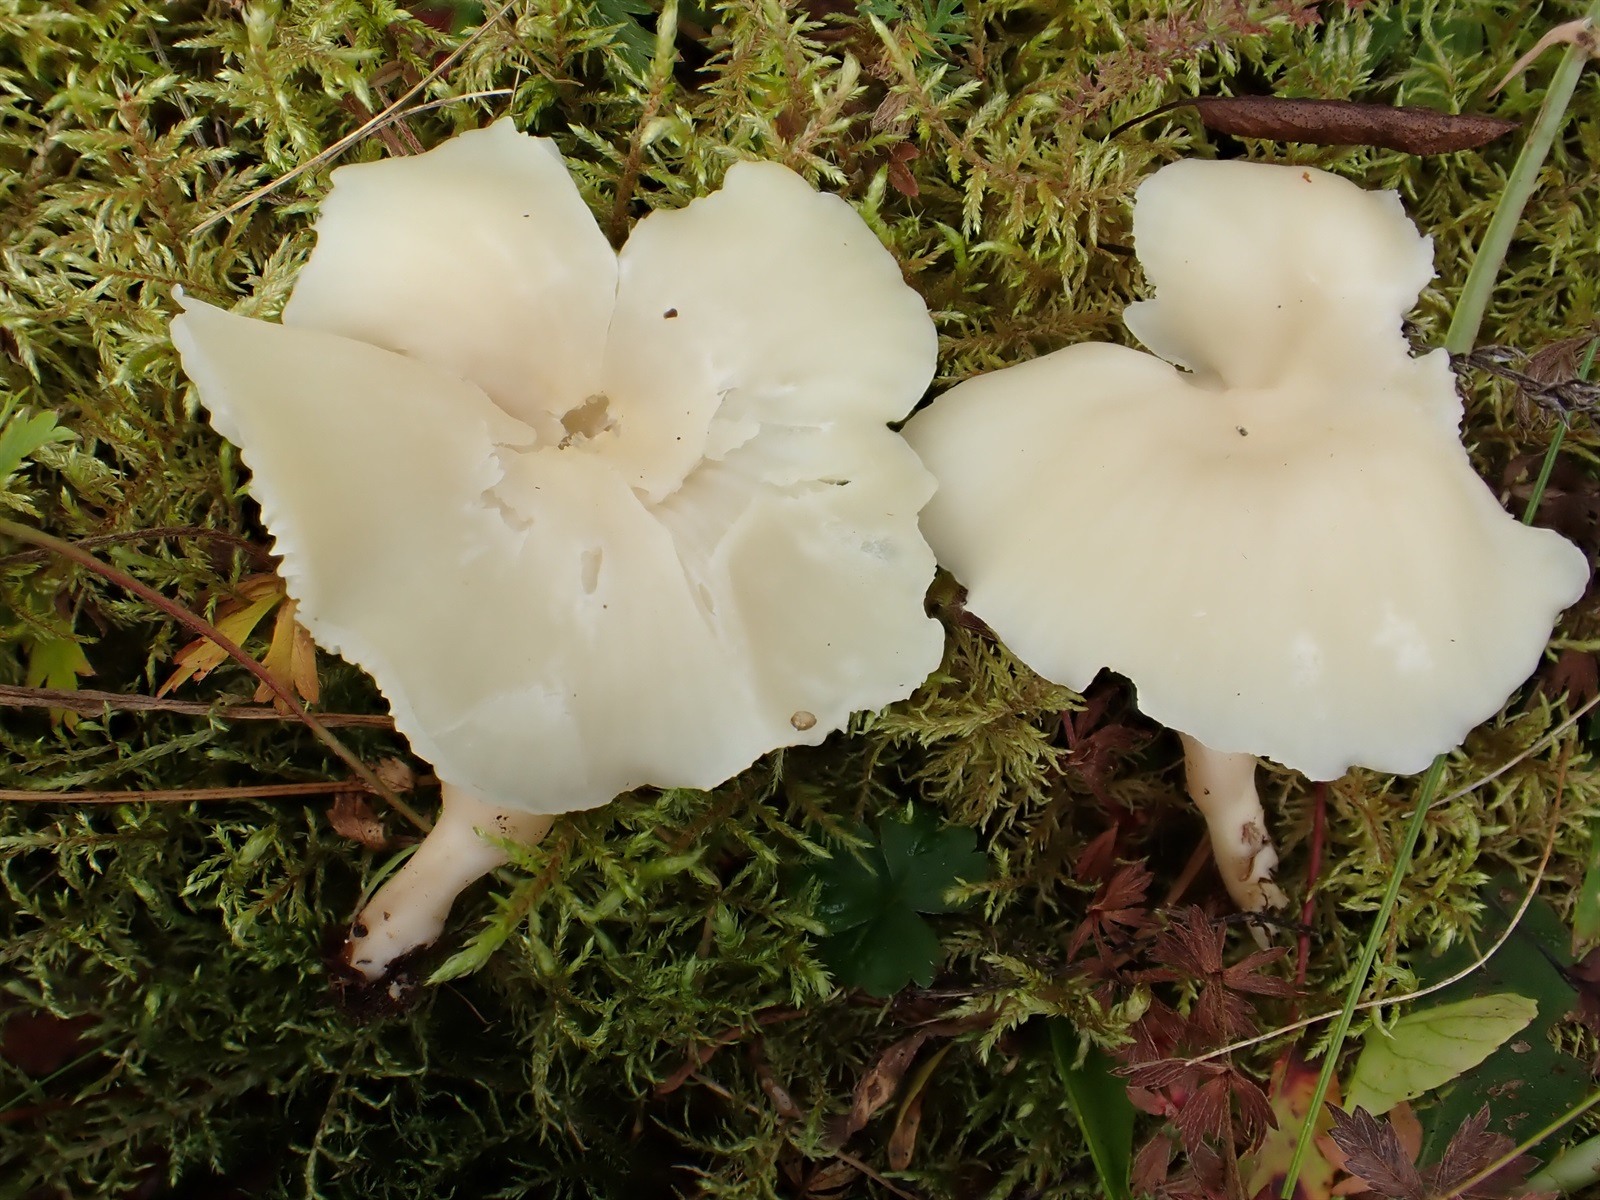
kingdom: Fungi
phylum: Basidiomycota
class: Agaricomycetes
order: Agaricales
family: Hygrophoraceae
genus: Cuphophyllus
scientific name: Cuphophyllus virgineus
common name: Snowy waxcap
